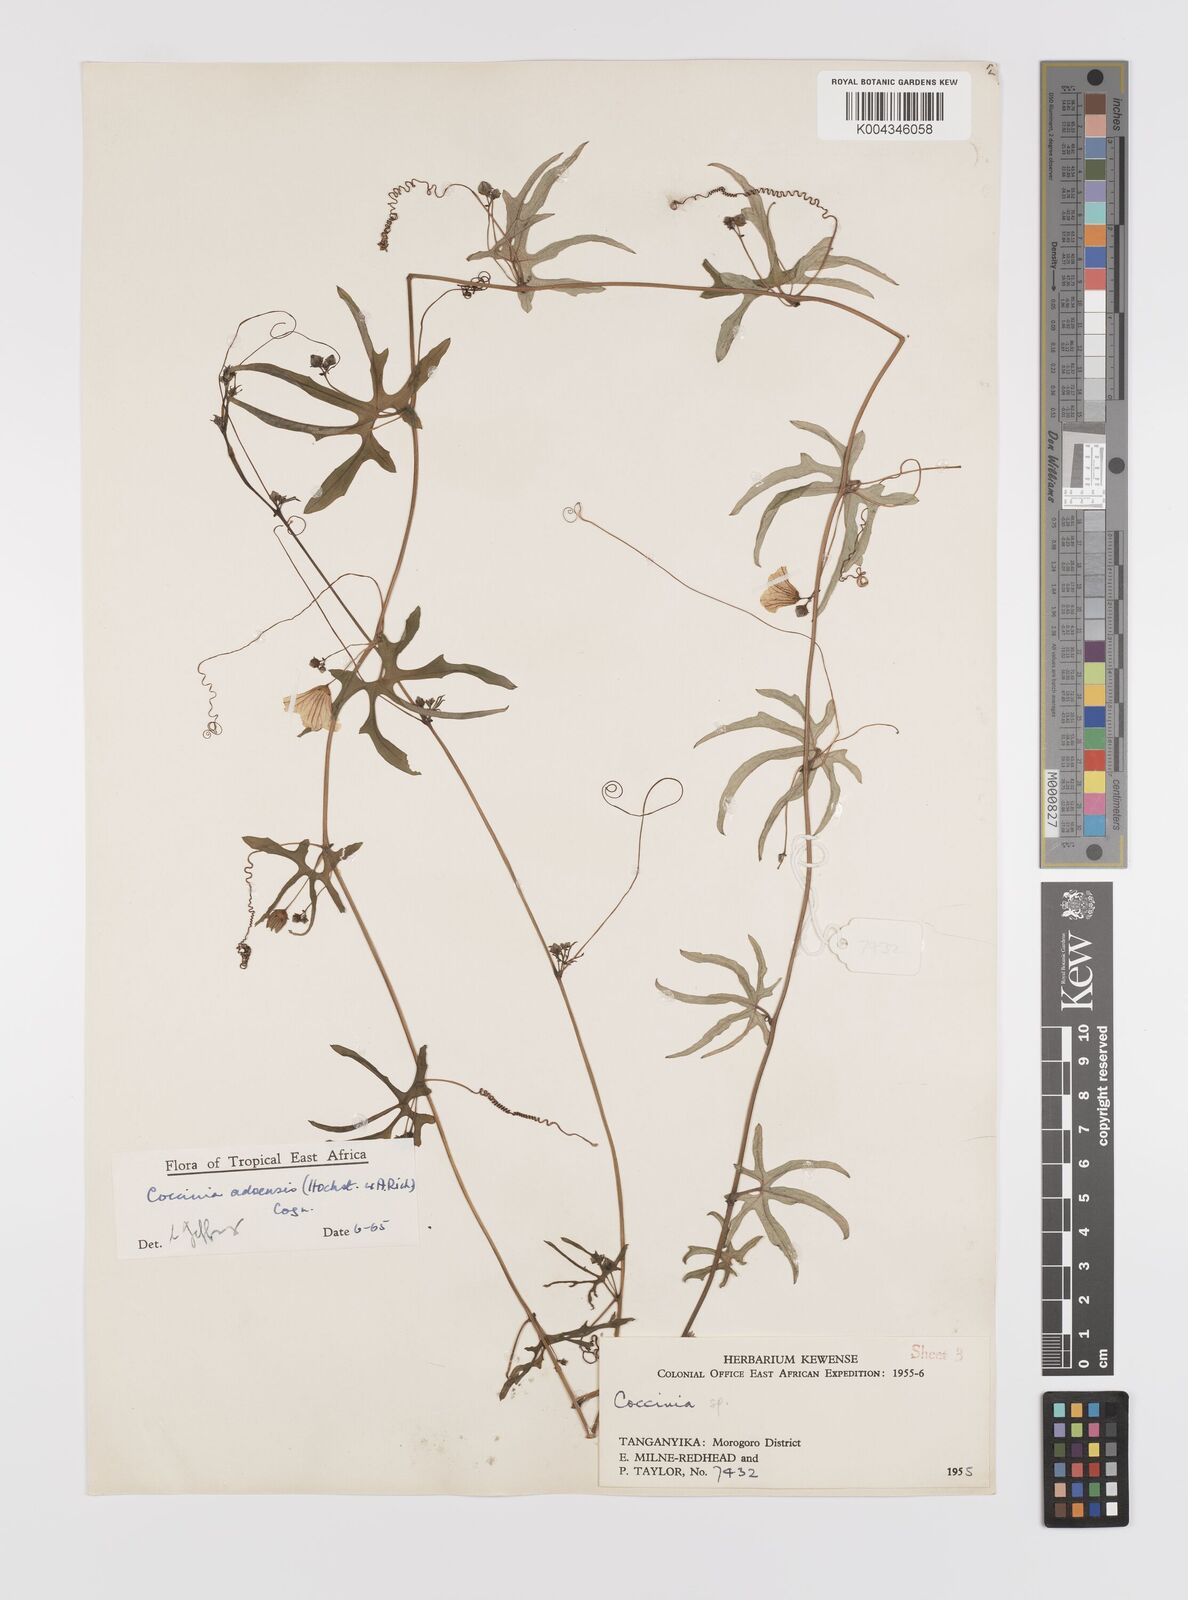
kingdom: Plantae
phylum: Tracheophyta
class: Magnoliopsida
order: Cucurbitales
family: Cucurbitaceae
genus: Coccinia
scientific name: Coccinia adoensis
